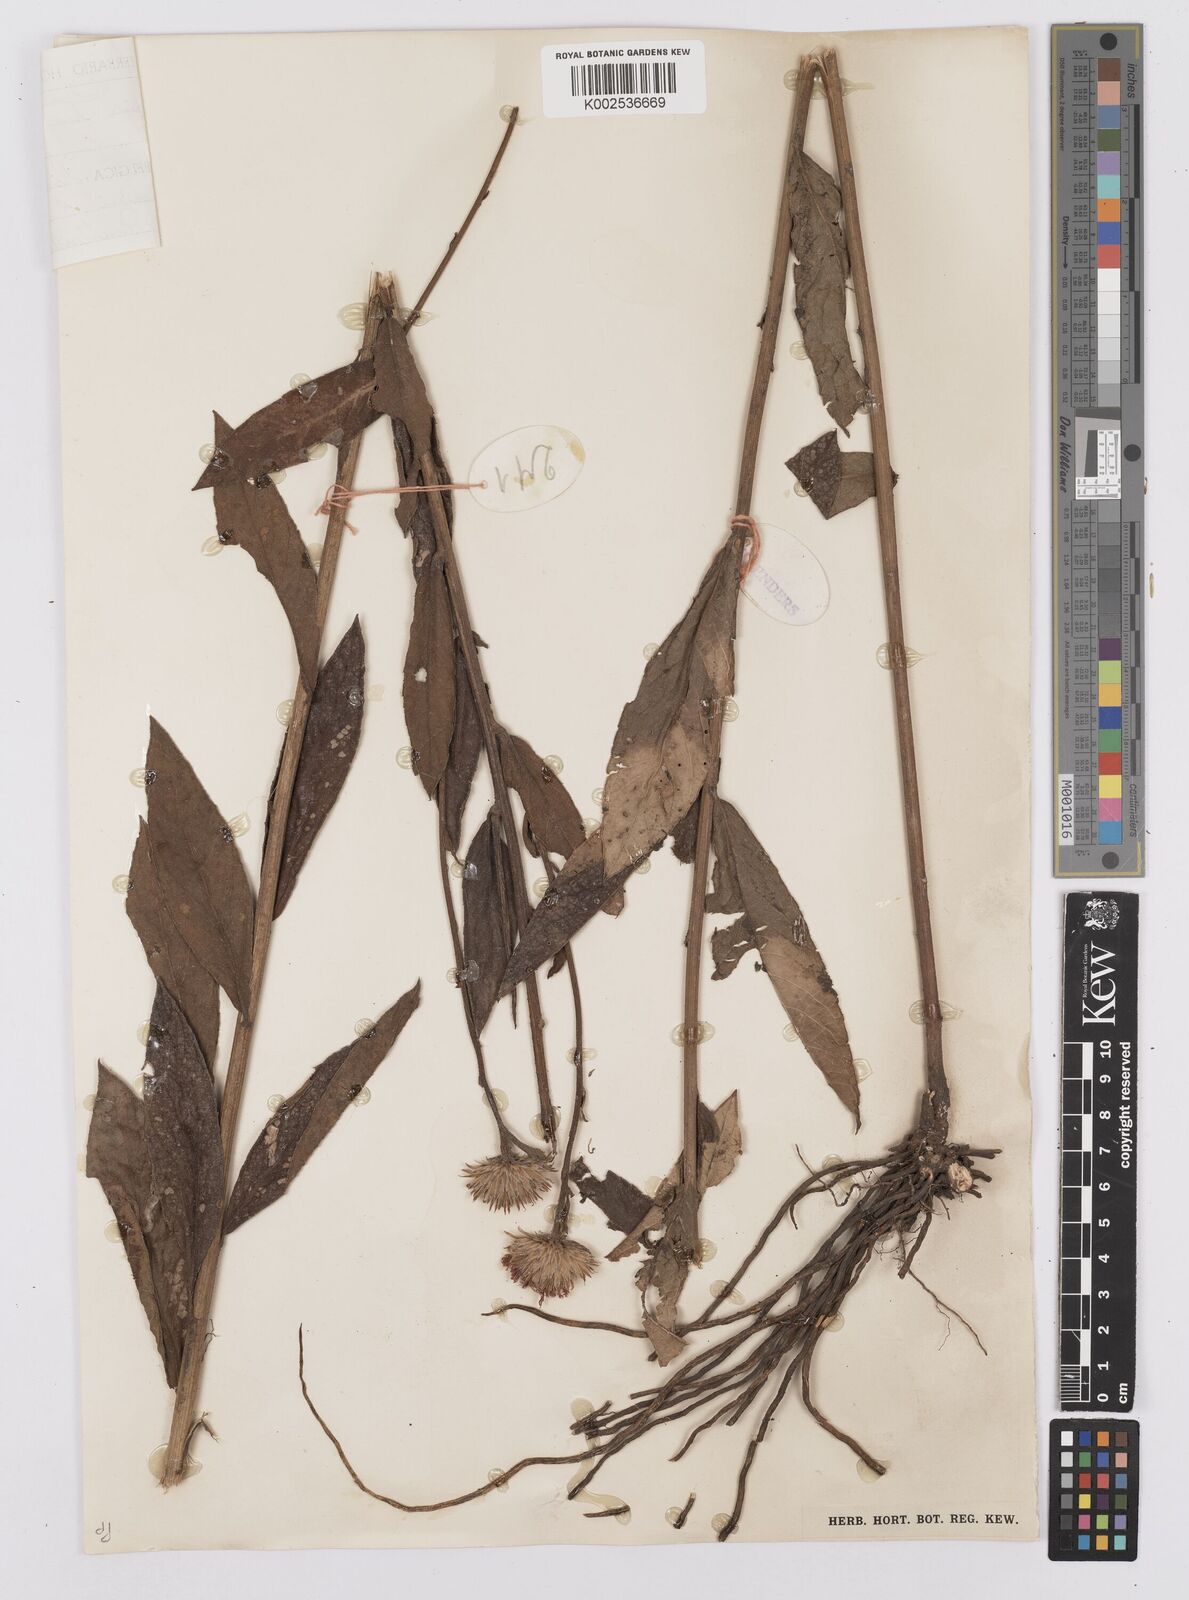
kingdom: Plantae
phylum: Tracheophyta
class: Magnoliopsida
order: Asterales
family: Asteraceae
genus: Nothovernonia
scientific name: Nothovernonia purpurea
